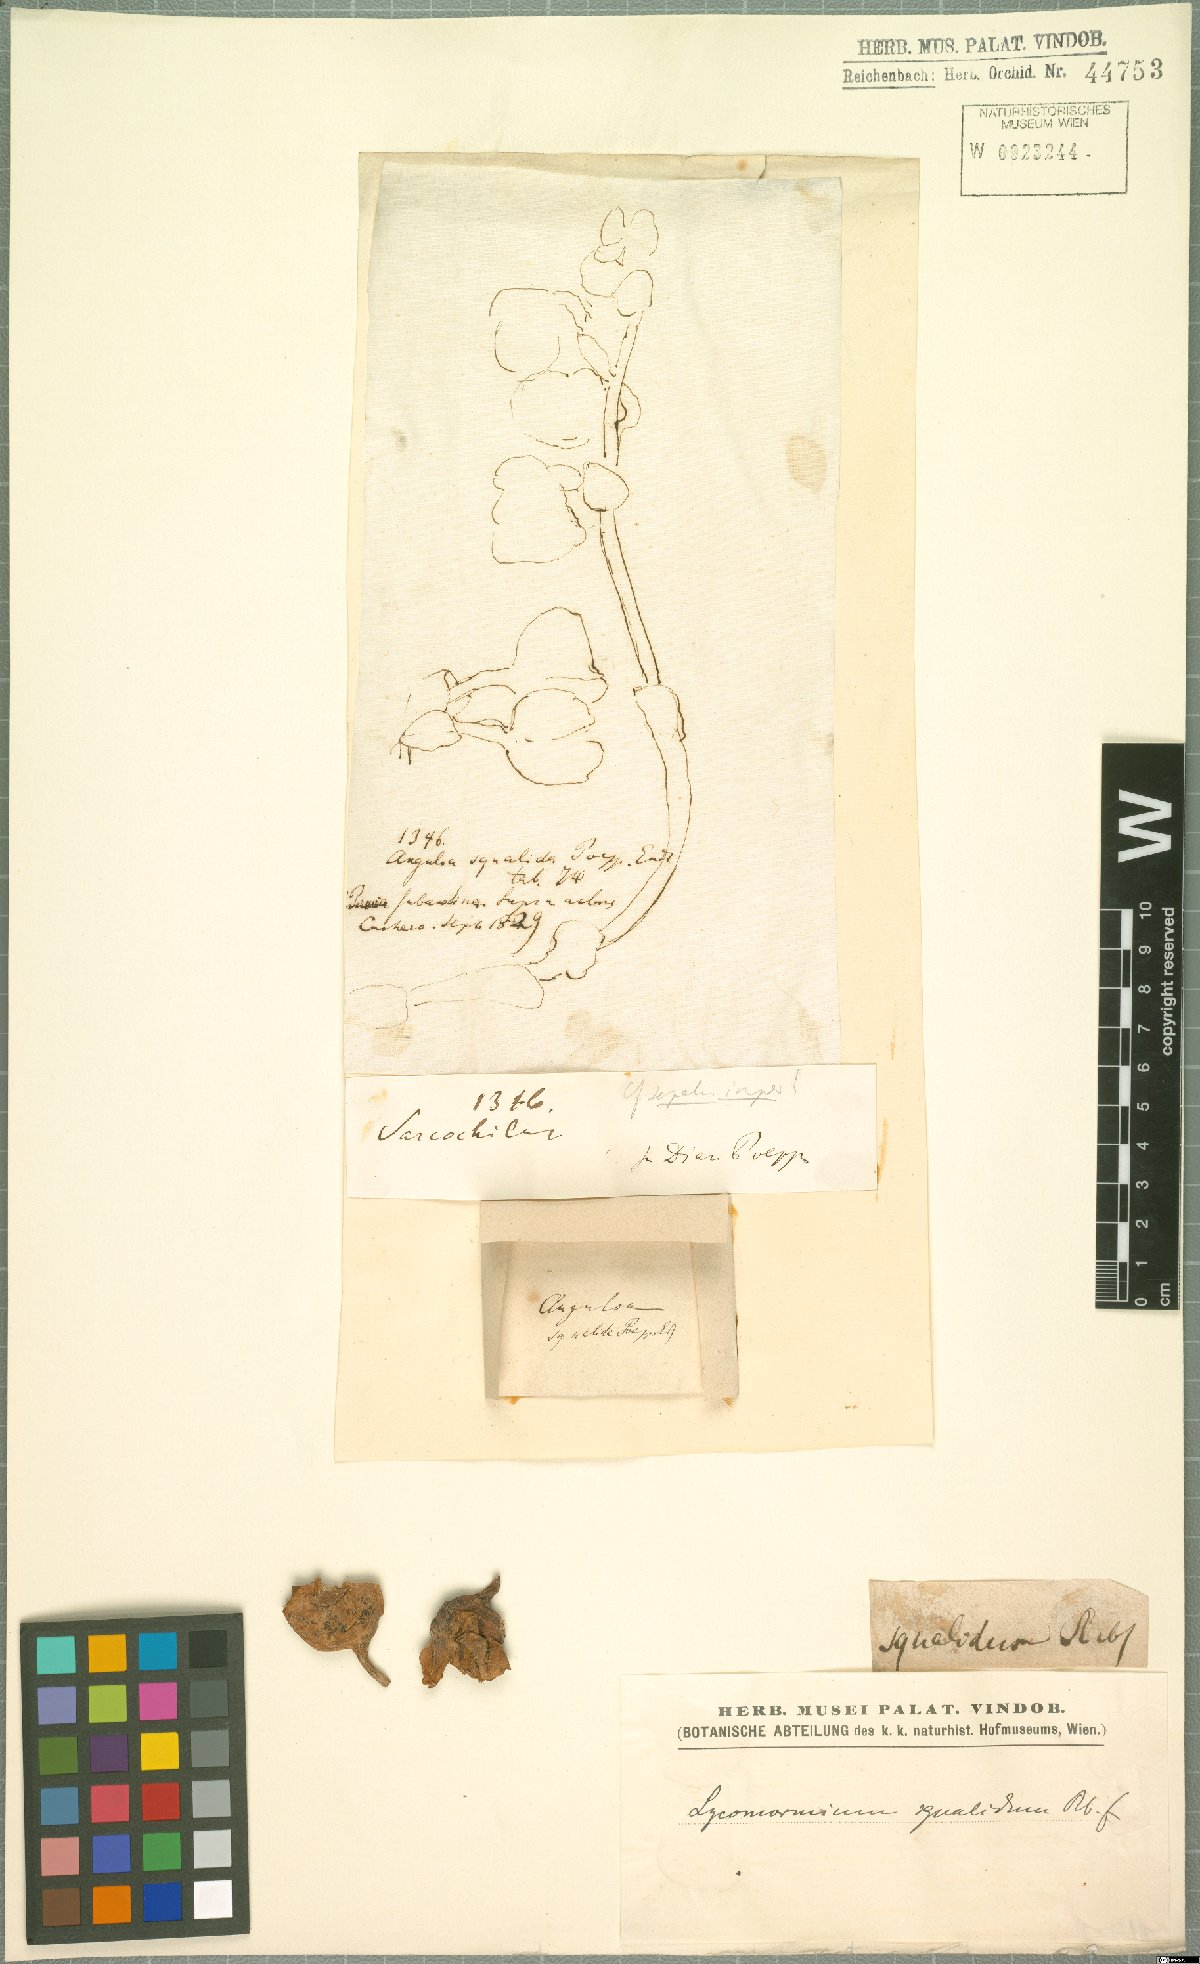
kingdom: Plantae
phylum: Tracheophyta
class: Liliopsida
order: Asparagales
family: Orchidaceae
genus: Lycomormium
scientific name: Lycomormium squalidum
